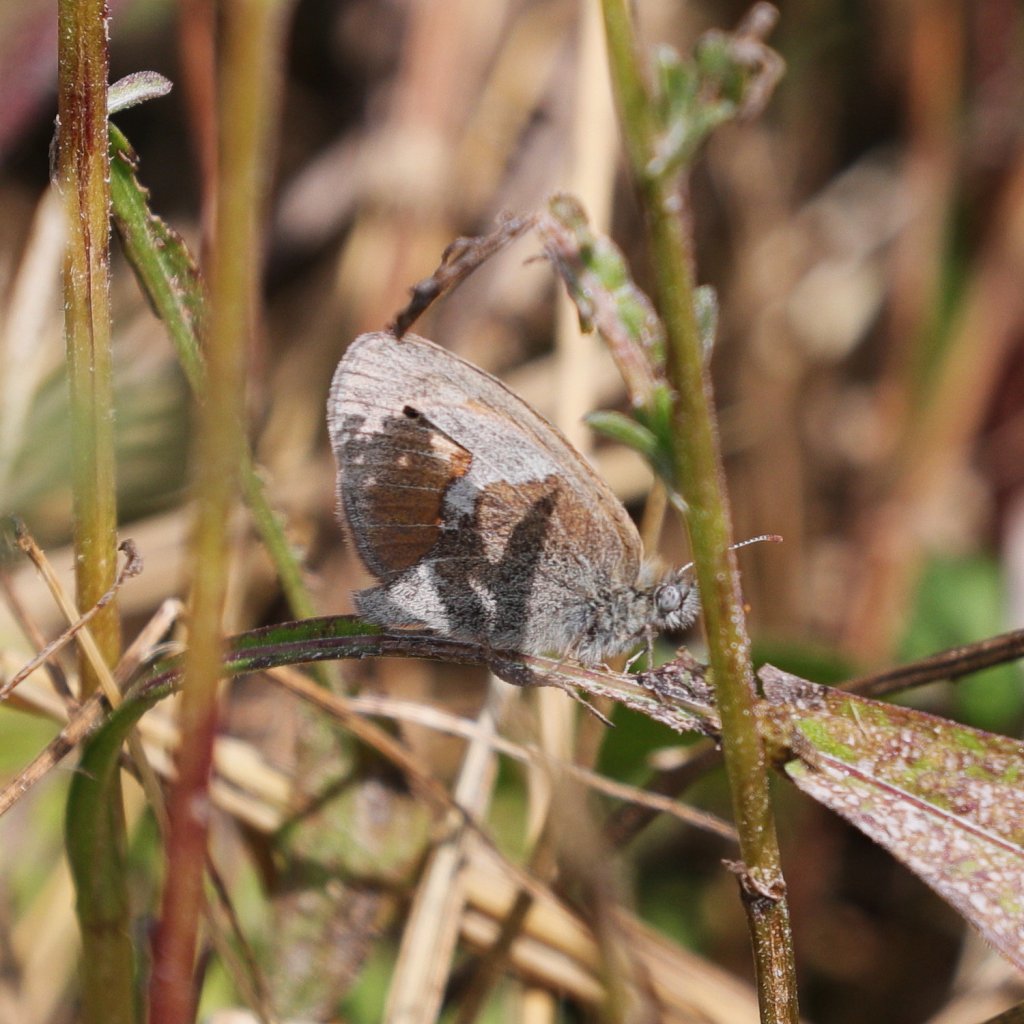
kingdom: Animalia
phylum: Arthropoda
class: Insecta
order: Lepidoptera
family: Nymphalidae
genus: Coenonympha
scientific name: Coenonympha tullia
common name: Large Heath
